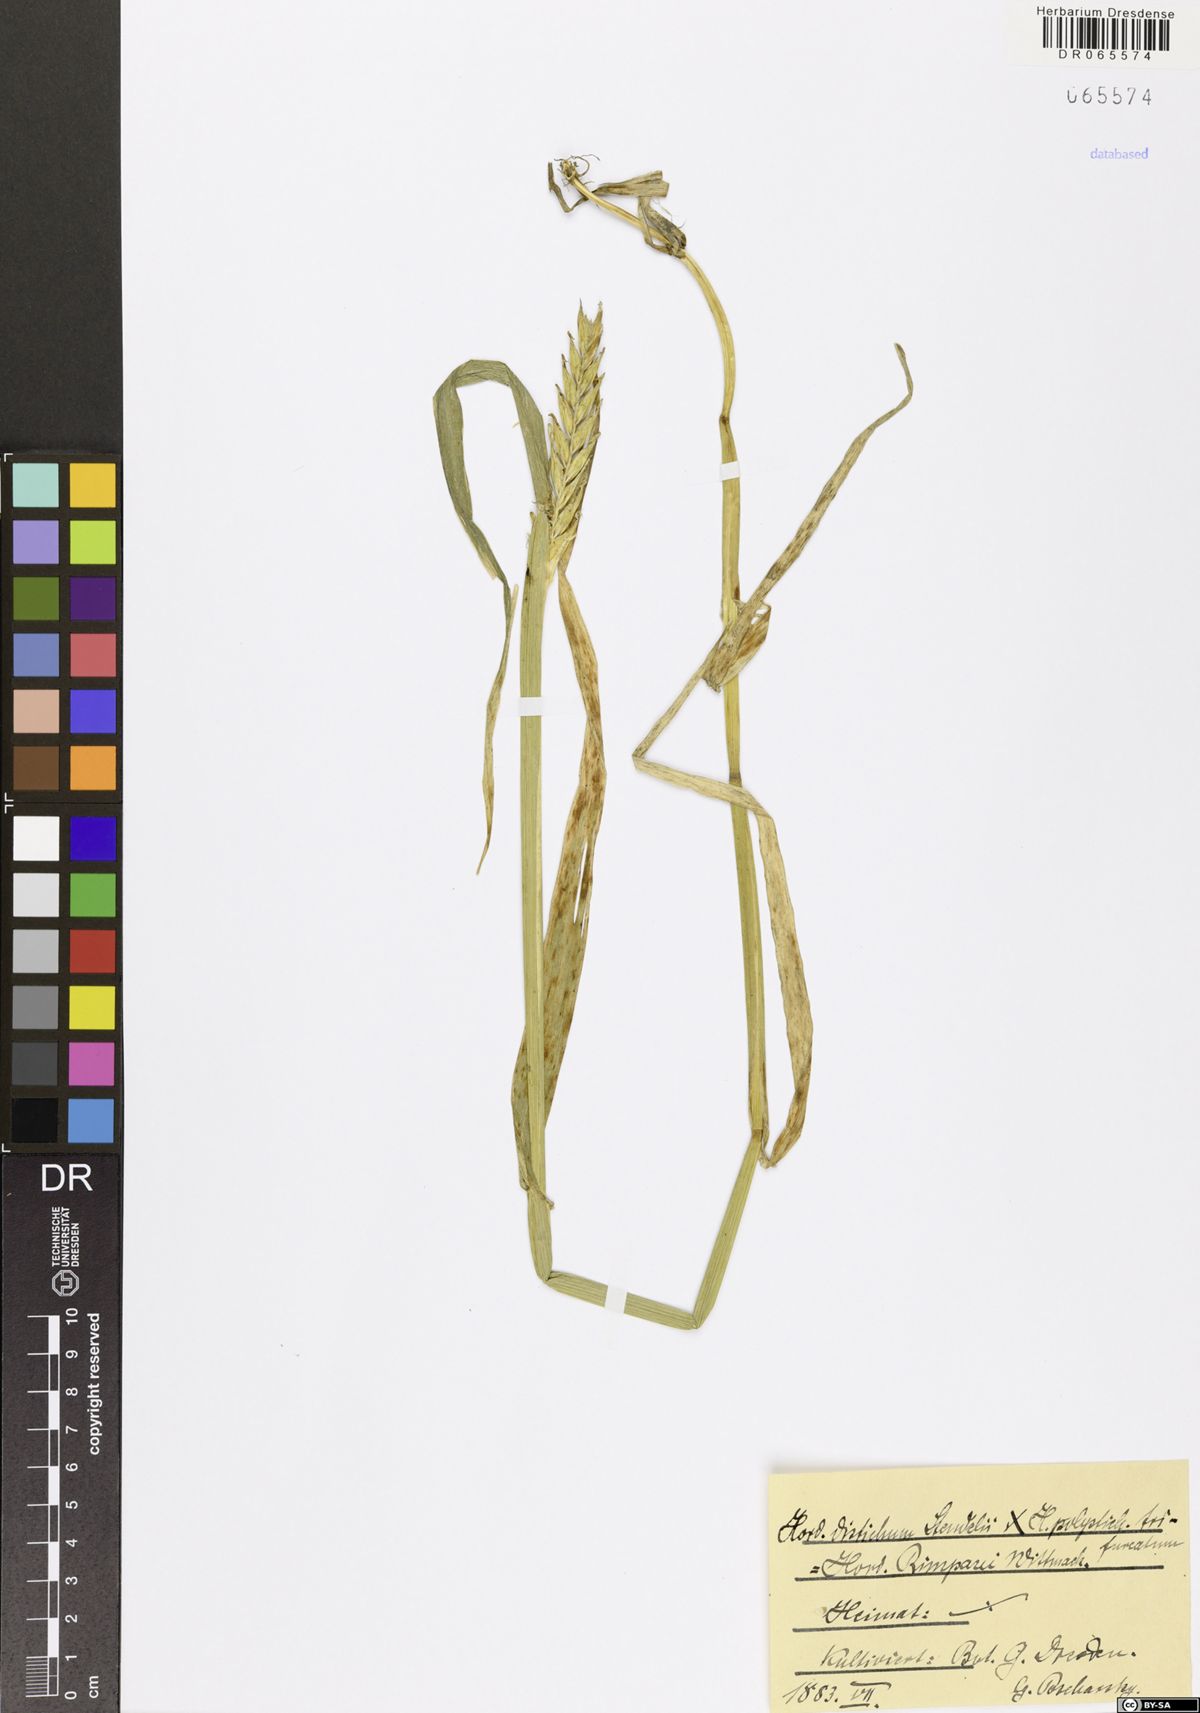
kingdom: Plantae
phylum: Tracheophyta
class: Liliopsida
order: Poales
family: Poaceae
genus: Hordeum
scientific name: Hordeum
